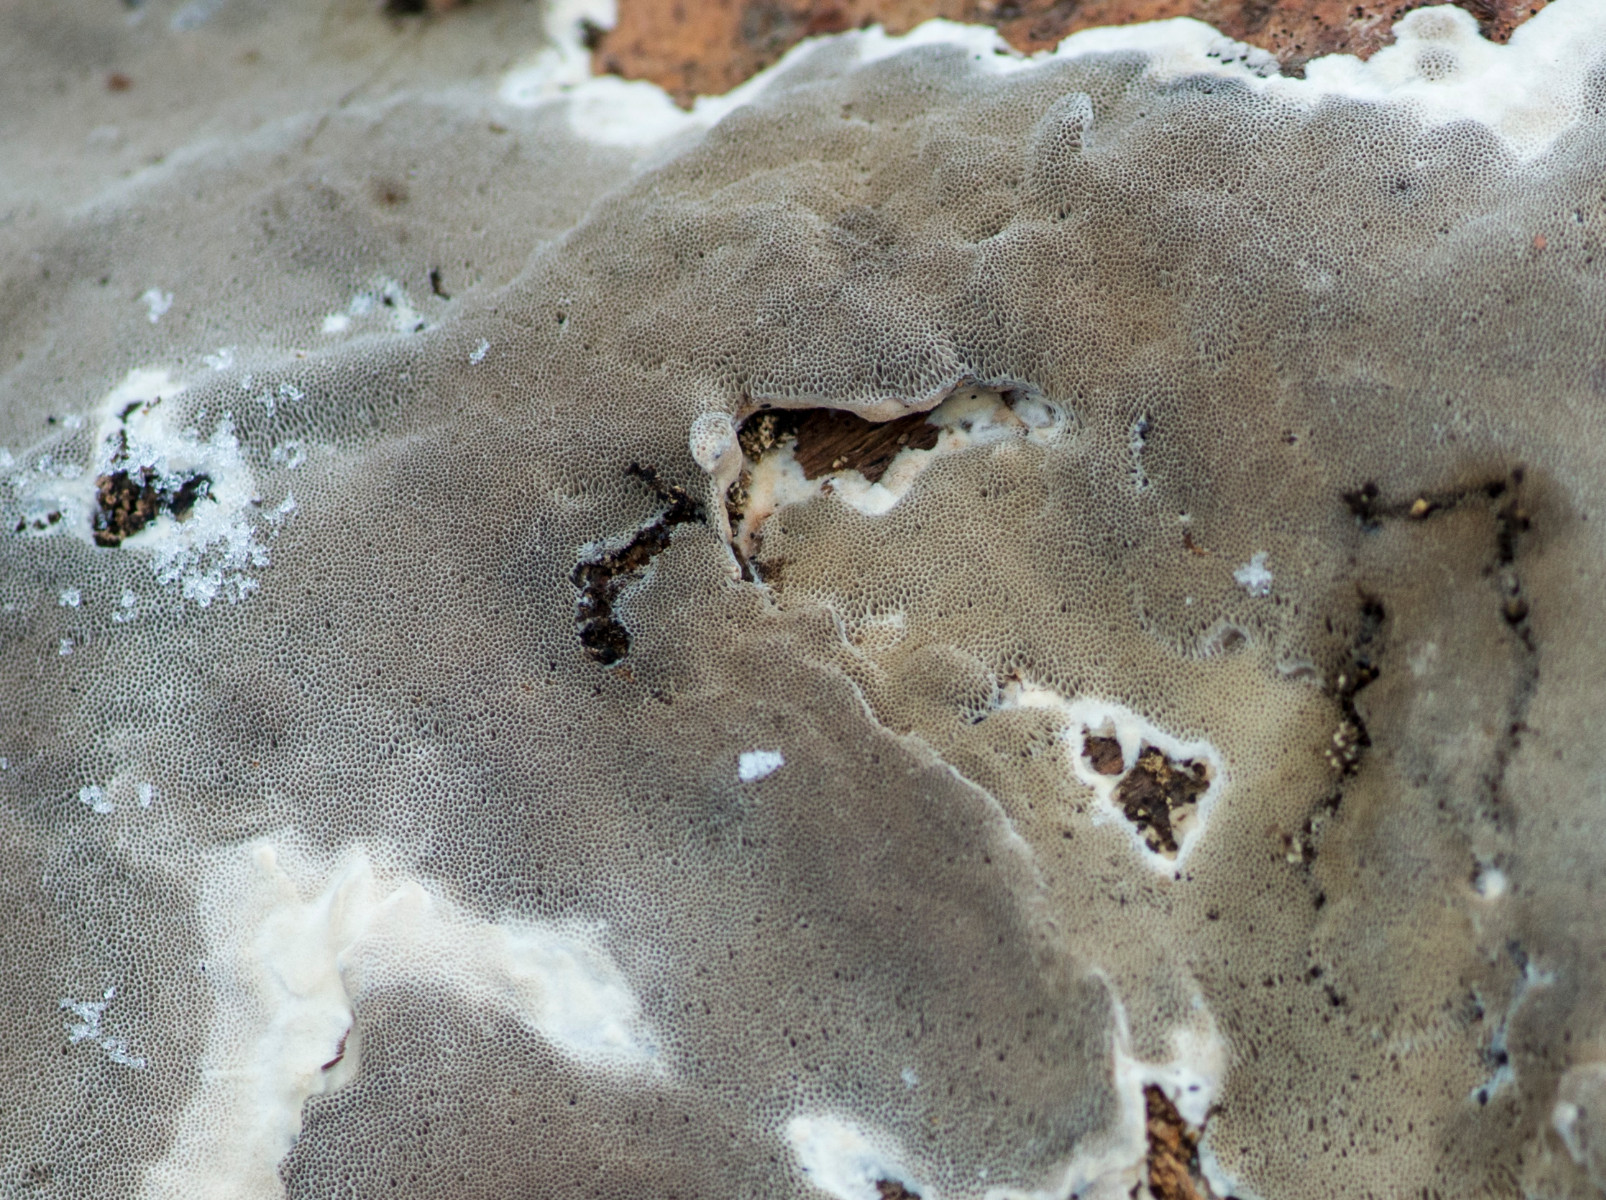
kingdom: Fungi
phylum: Basidiomycota
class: Agaricomycetes
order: Polyporales
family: Phanerochaetaceae
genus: Bjerkandera
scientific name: Bjerkandera adusta
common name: sveden sodporesvamp
